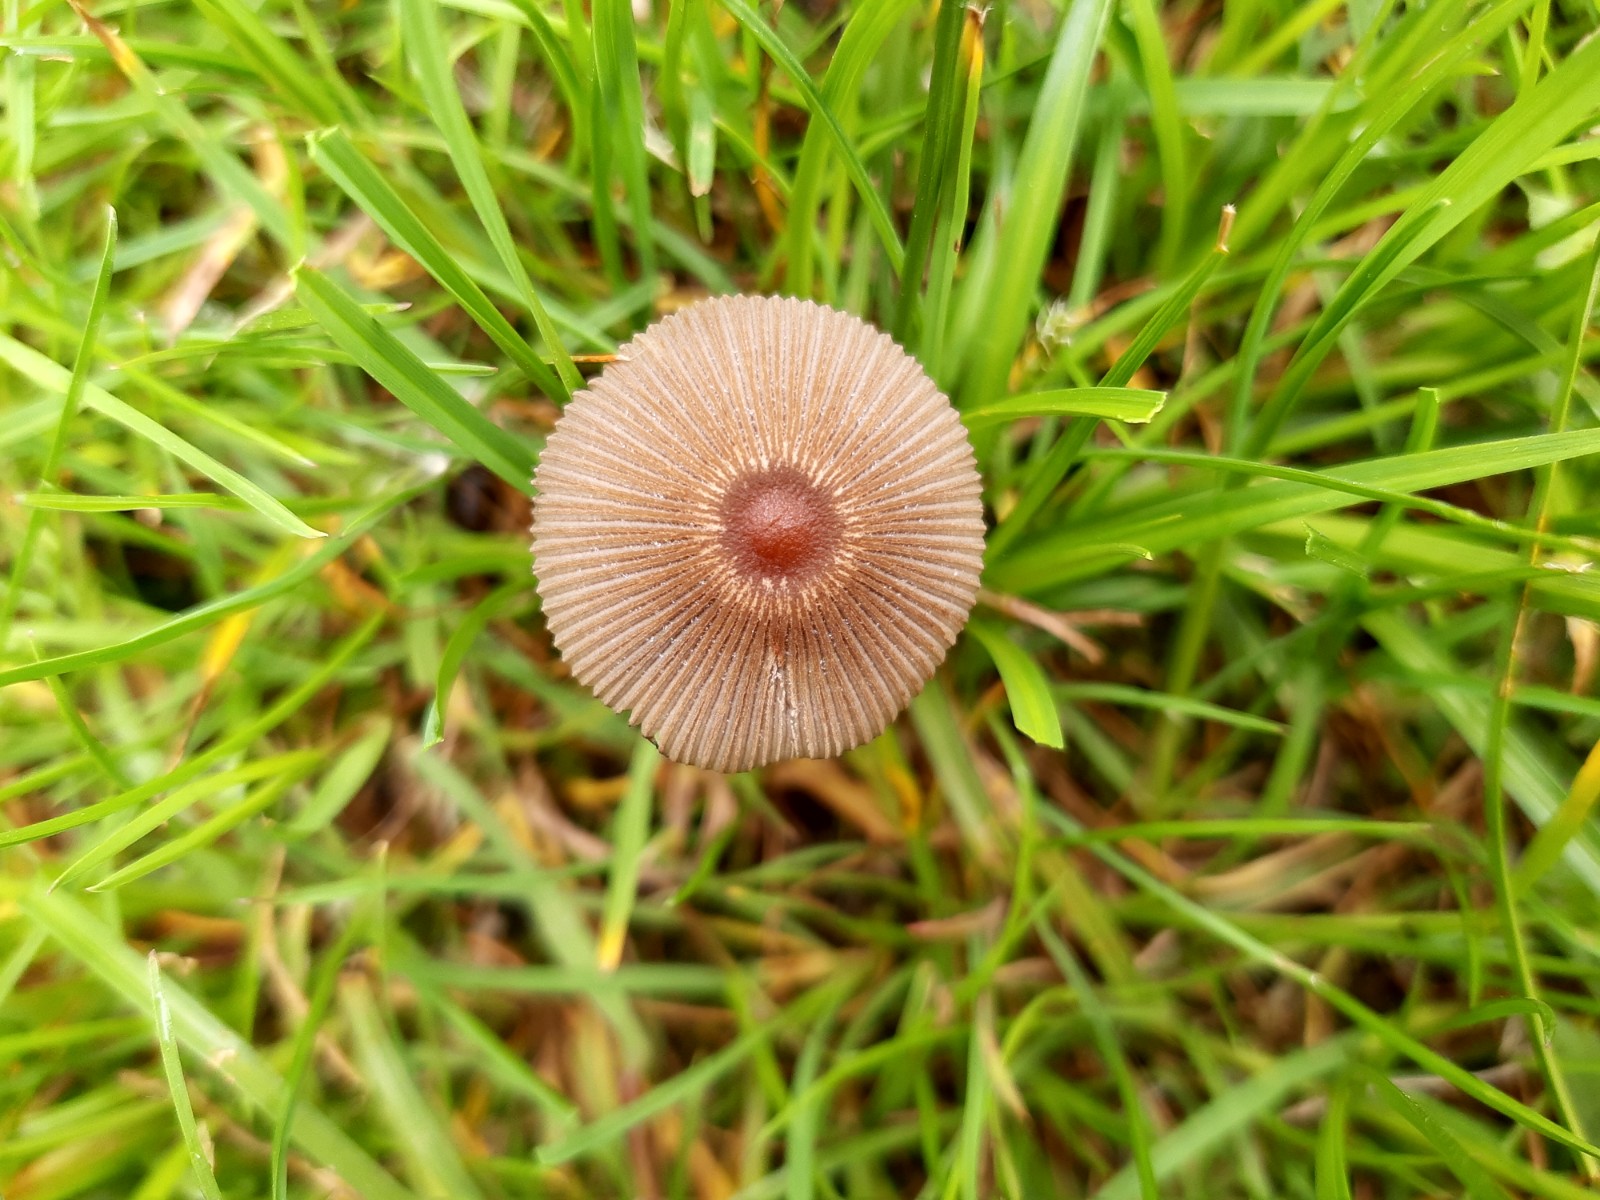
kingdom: Fungi
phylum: Basidiomycota
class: Agaricomycetes
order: Agaricales
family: Psathyrellaceae
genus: Parasola
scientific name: Parasola
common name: hjulhat
